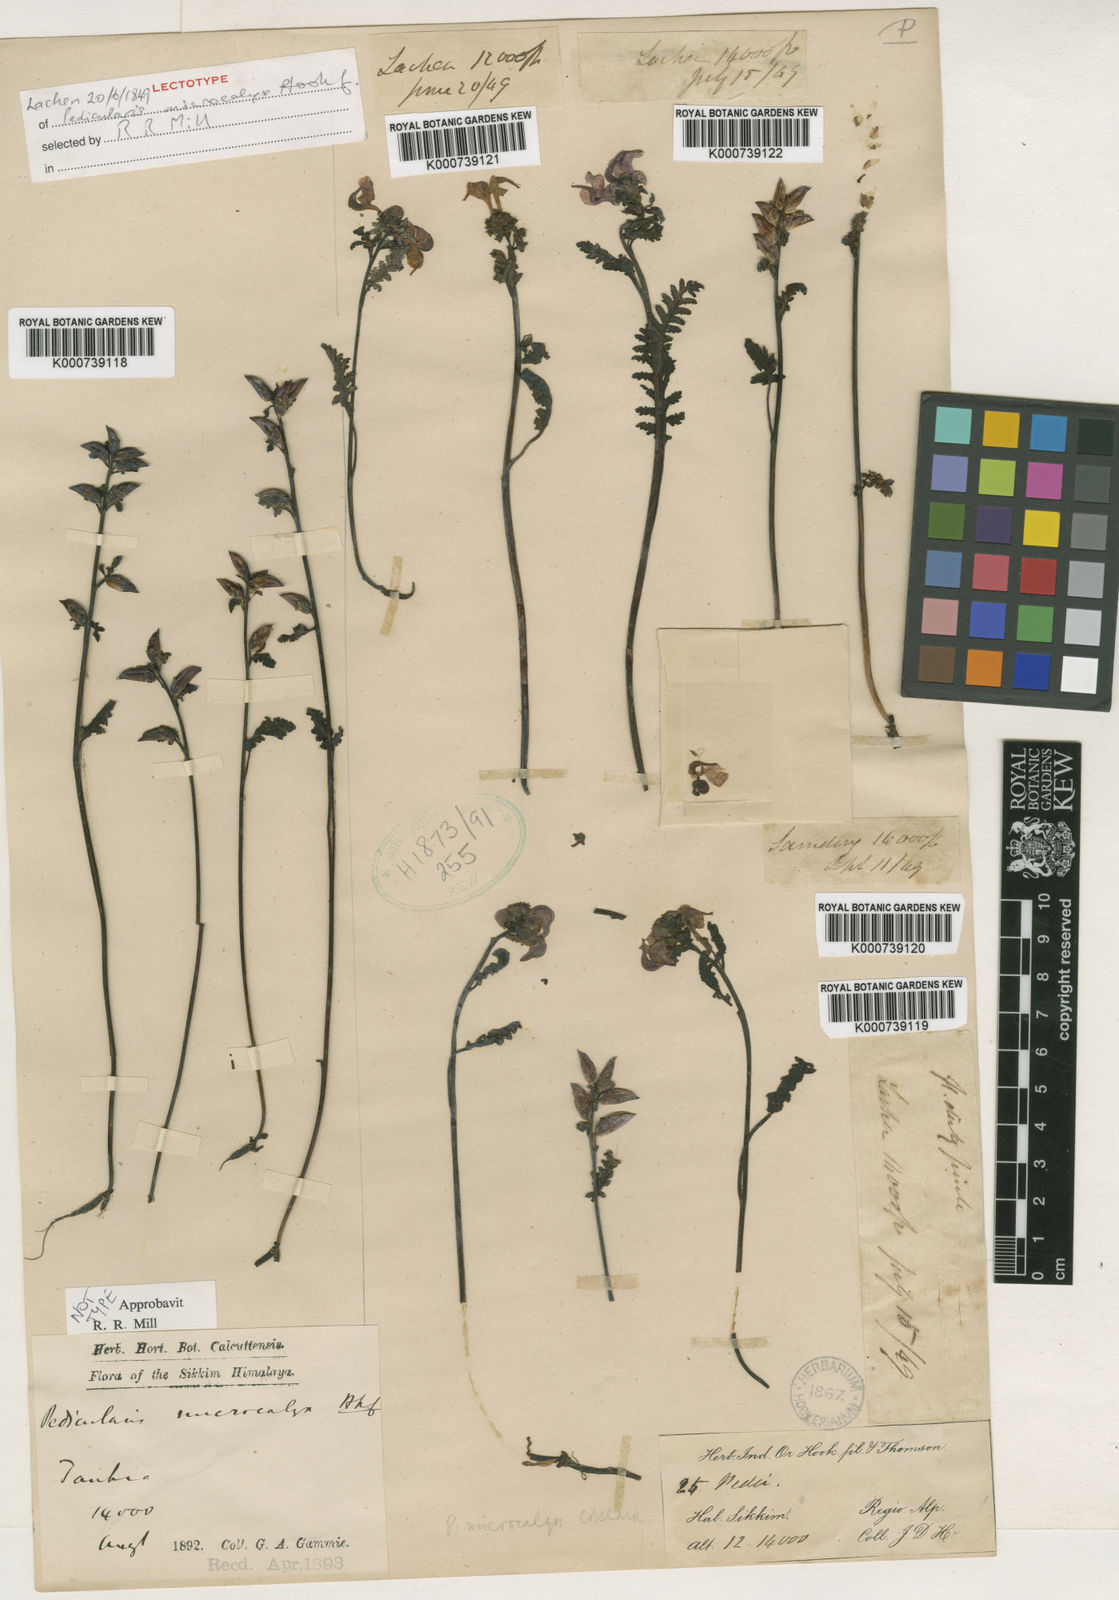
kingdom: Plantae
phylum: Tracheophyta
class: Magnoliopsida
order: Lamiales
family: Orobanchaceae
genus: Pedicularis
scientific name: Pedicularis microcalyx
